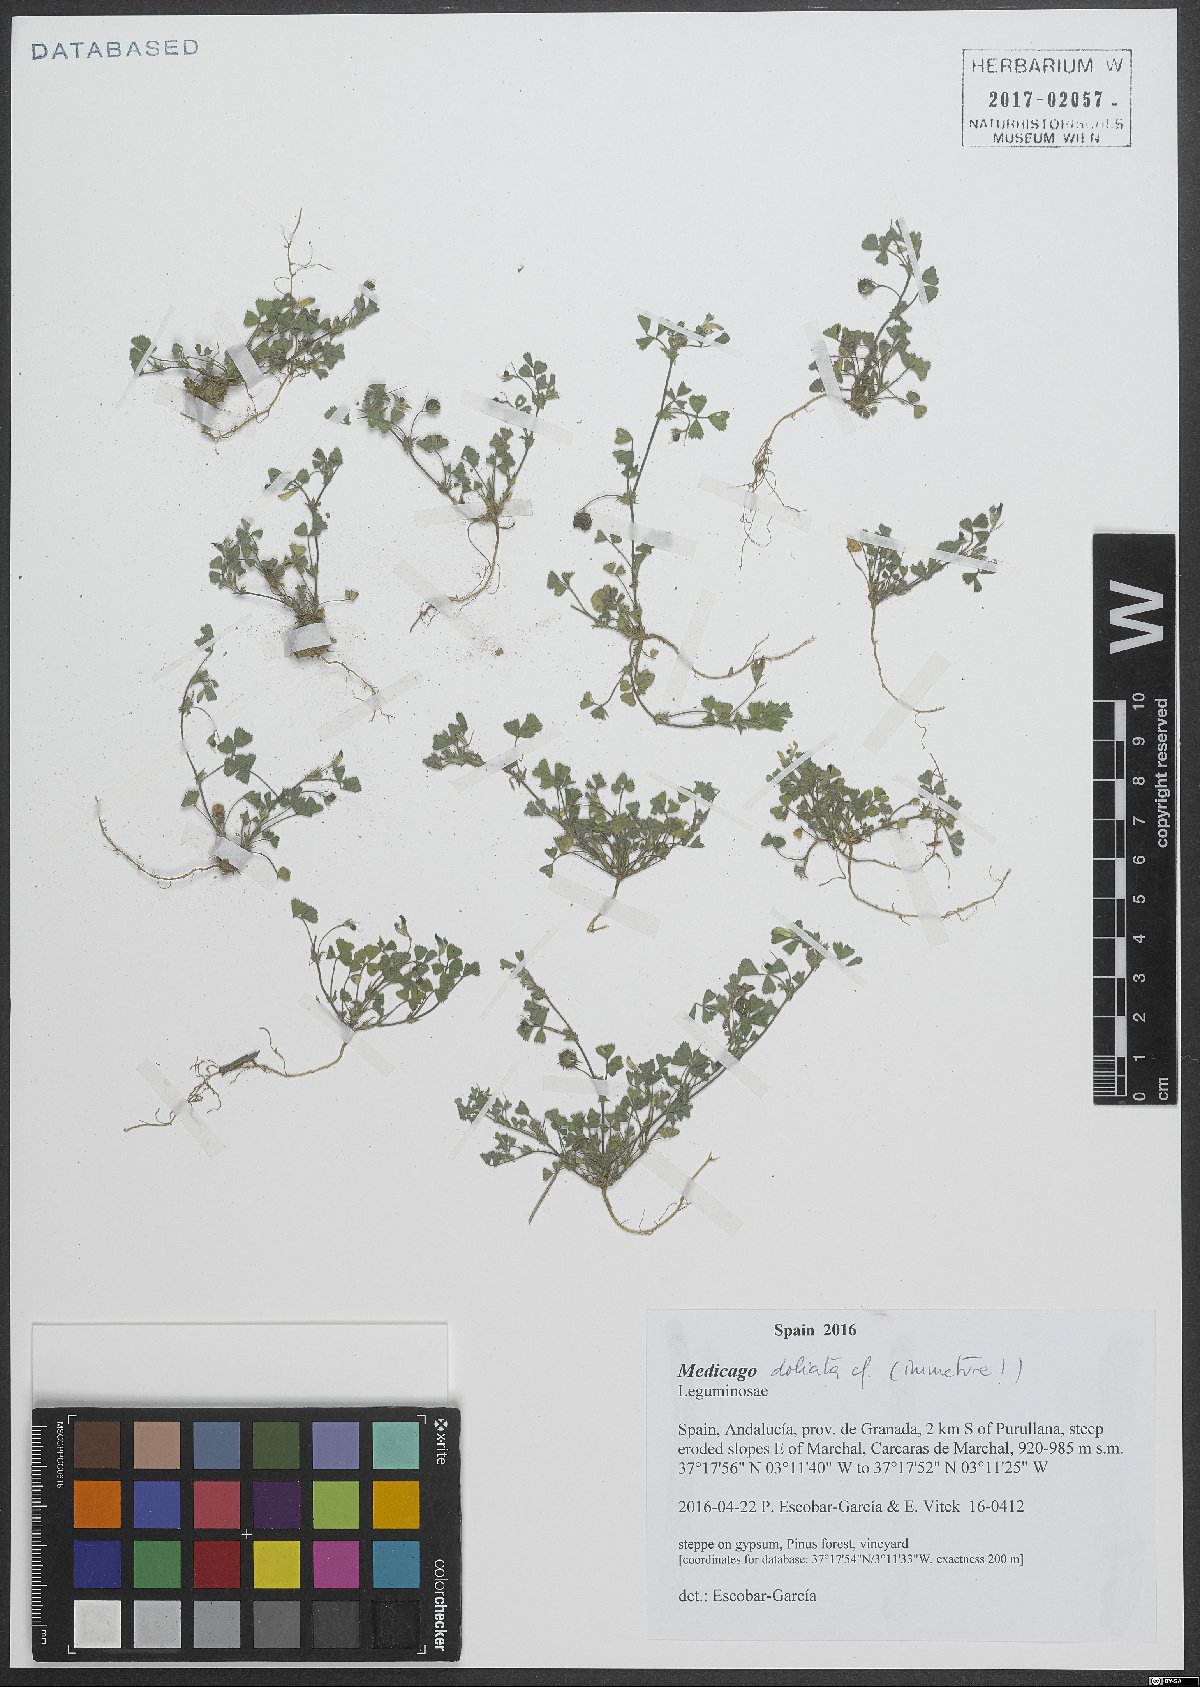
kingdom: Plantae
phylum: Tracheophyta
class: Magnoliopsida
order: Fabales
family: Fabaceae
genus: Medicago
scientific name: Medicago
